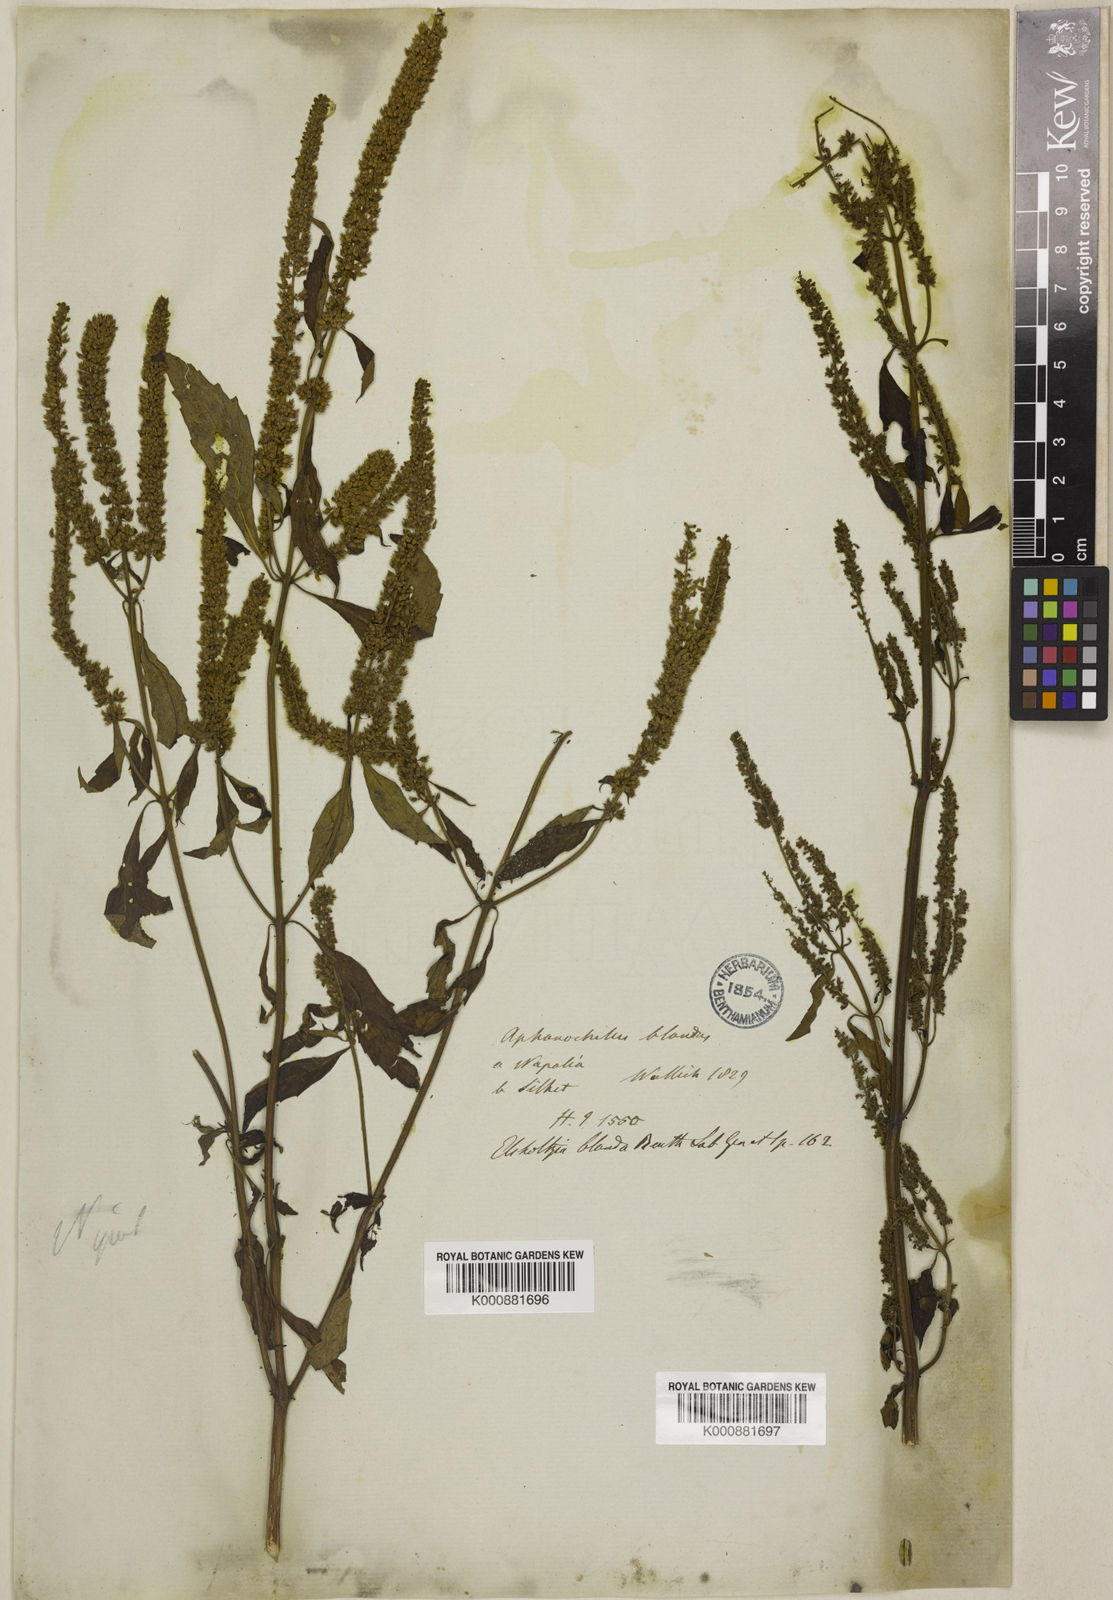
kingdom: Plantae
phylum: Tracheophyta
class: Magnoliopsida
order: Lamiales
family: Lamiaceae
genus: Elsholtzia
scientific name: Elsholtzia blanda
